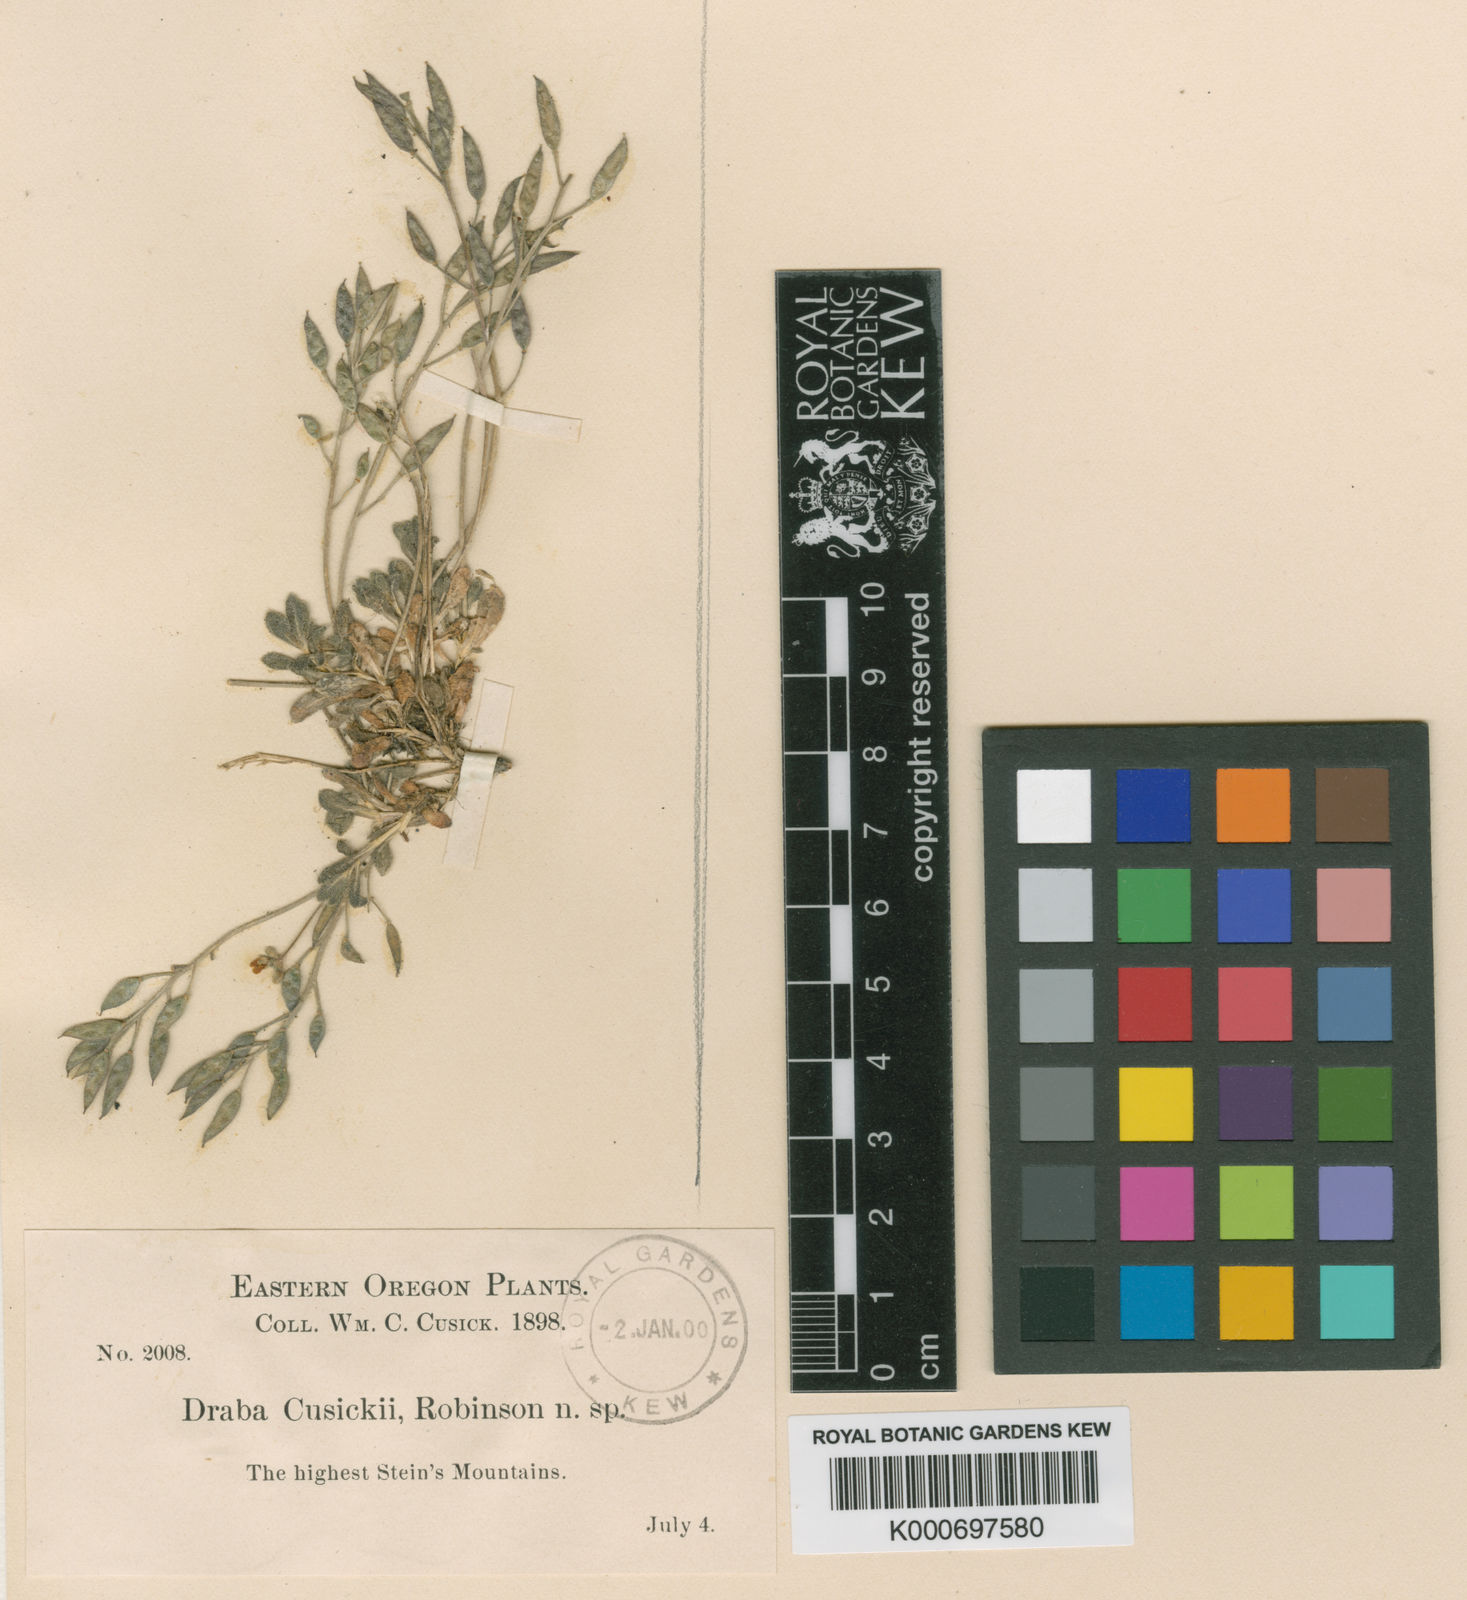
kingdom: Plantae
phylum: Tracheophyta
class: Magnoliopsida
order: Brassicales
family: Brassicaceae
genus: Draba
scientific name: Draba cusickii
